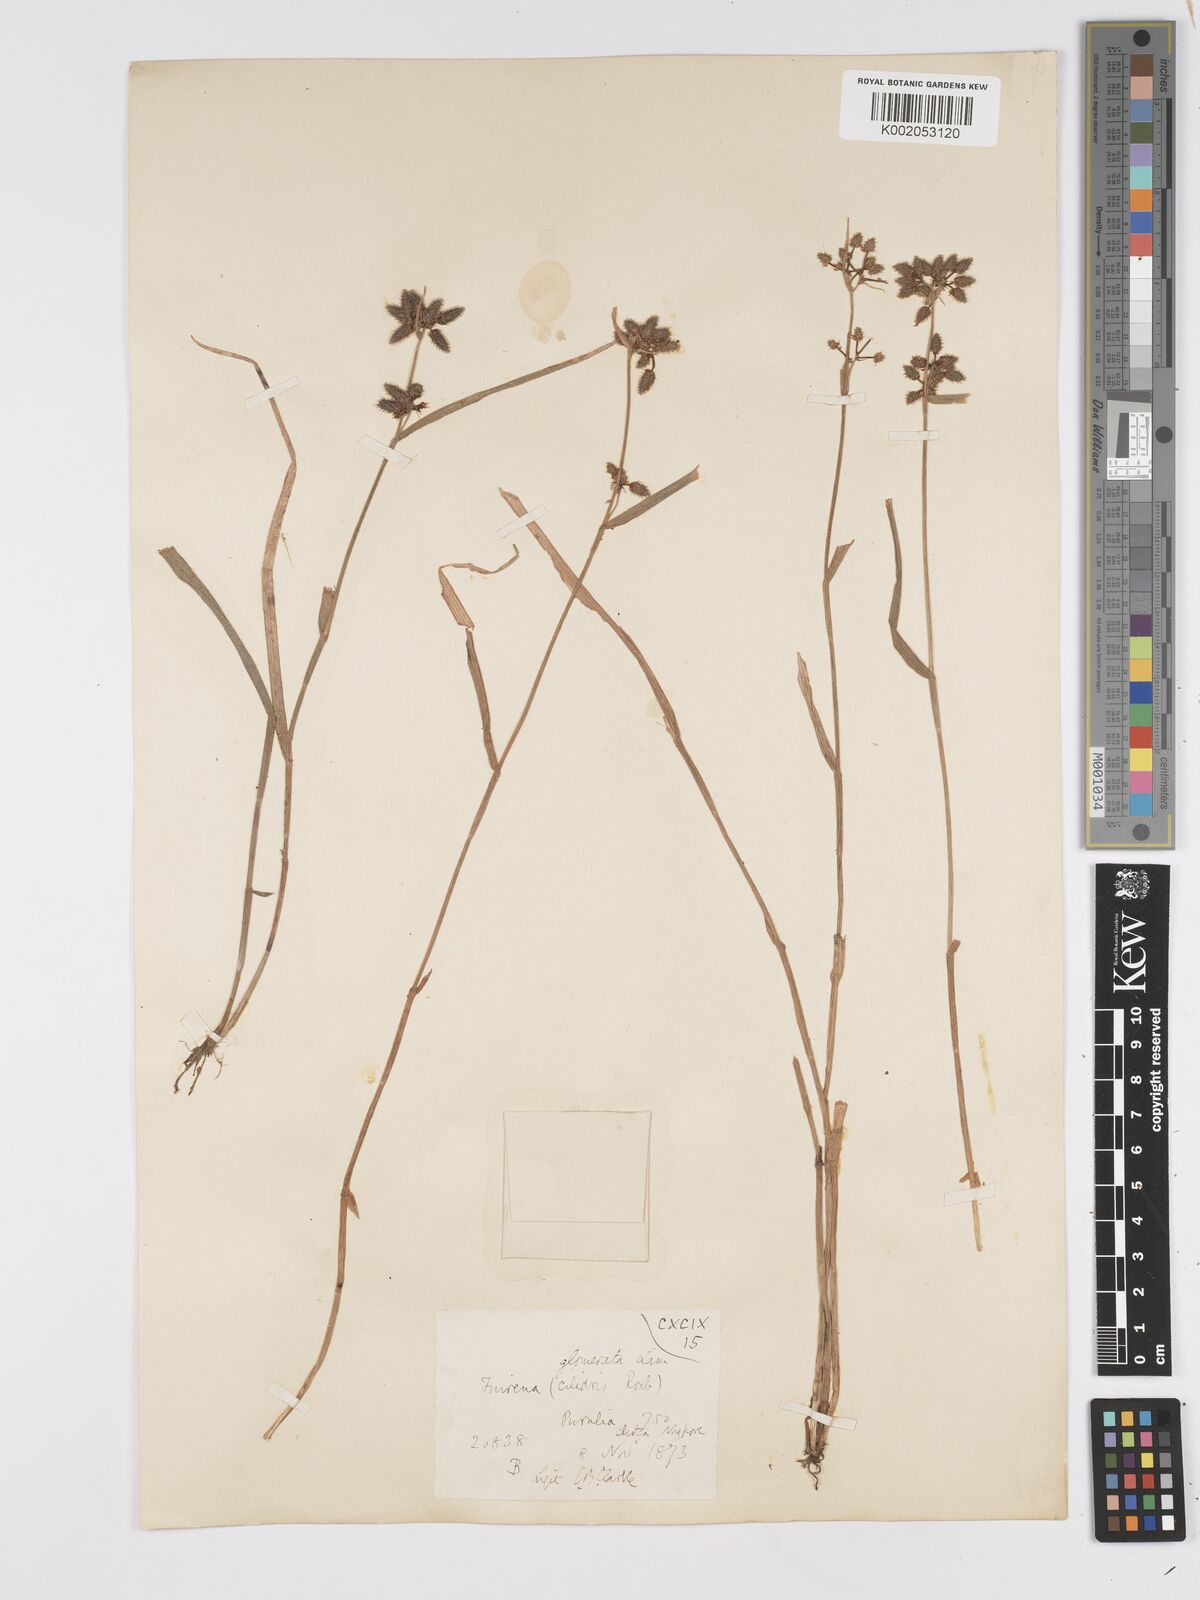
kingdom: Plantae
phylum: Tracheophyta
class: Liliopsida
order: Poales
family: Cyperaceae
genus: Fuirena
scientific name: Fuirena ciliaris
